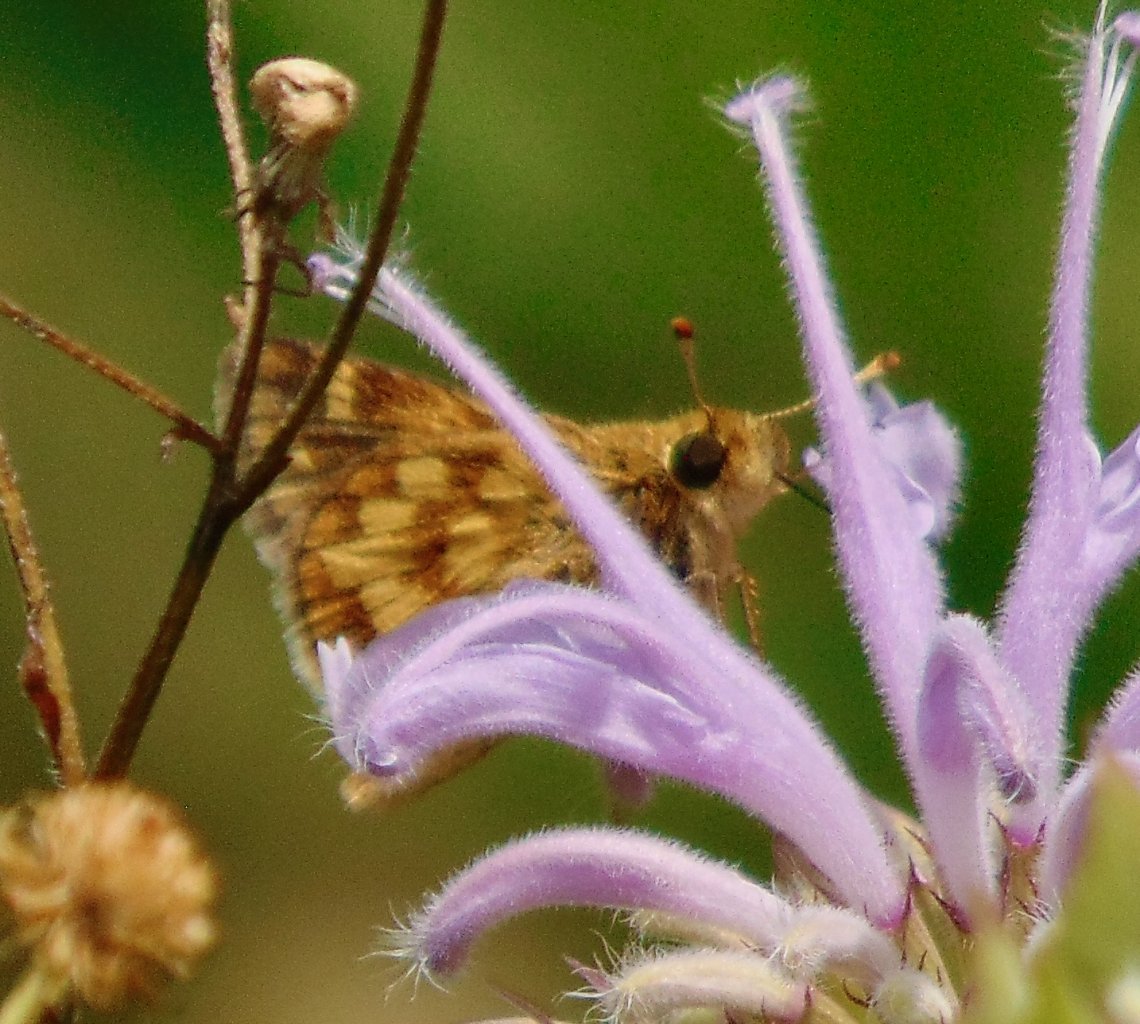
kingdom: Animalia
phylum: Arthropoda
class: Insecta
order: Lepidoptera
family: Hesperiidae
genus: Polites
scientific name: Polites coras
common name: Peck's Skipper
